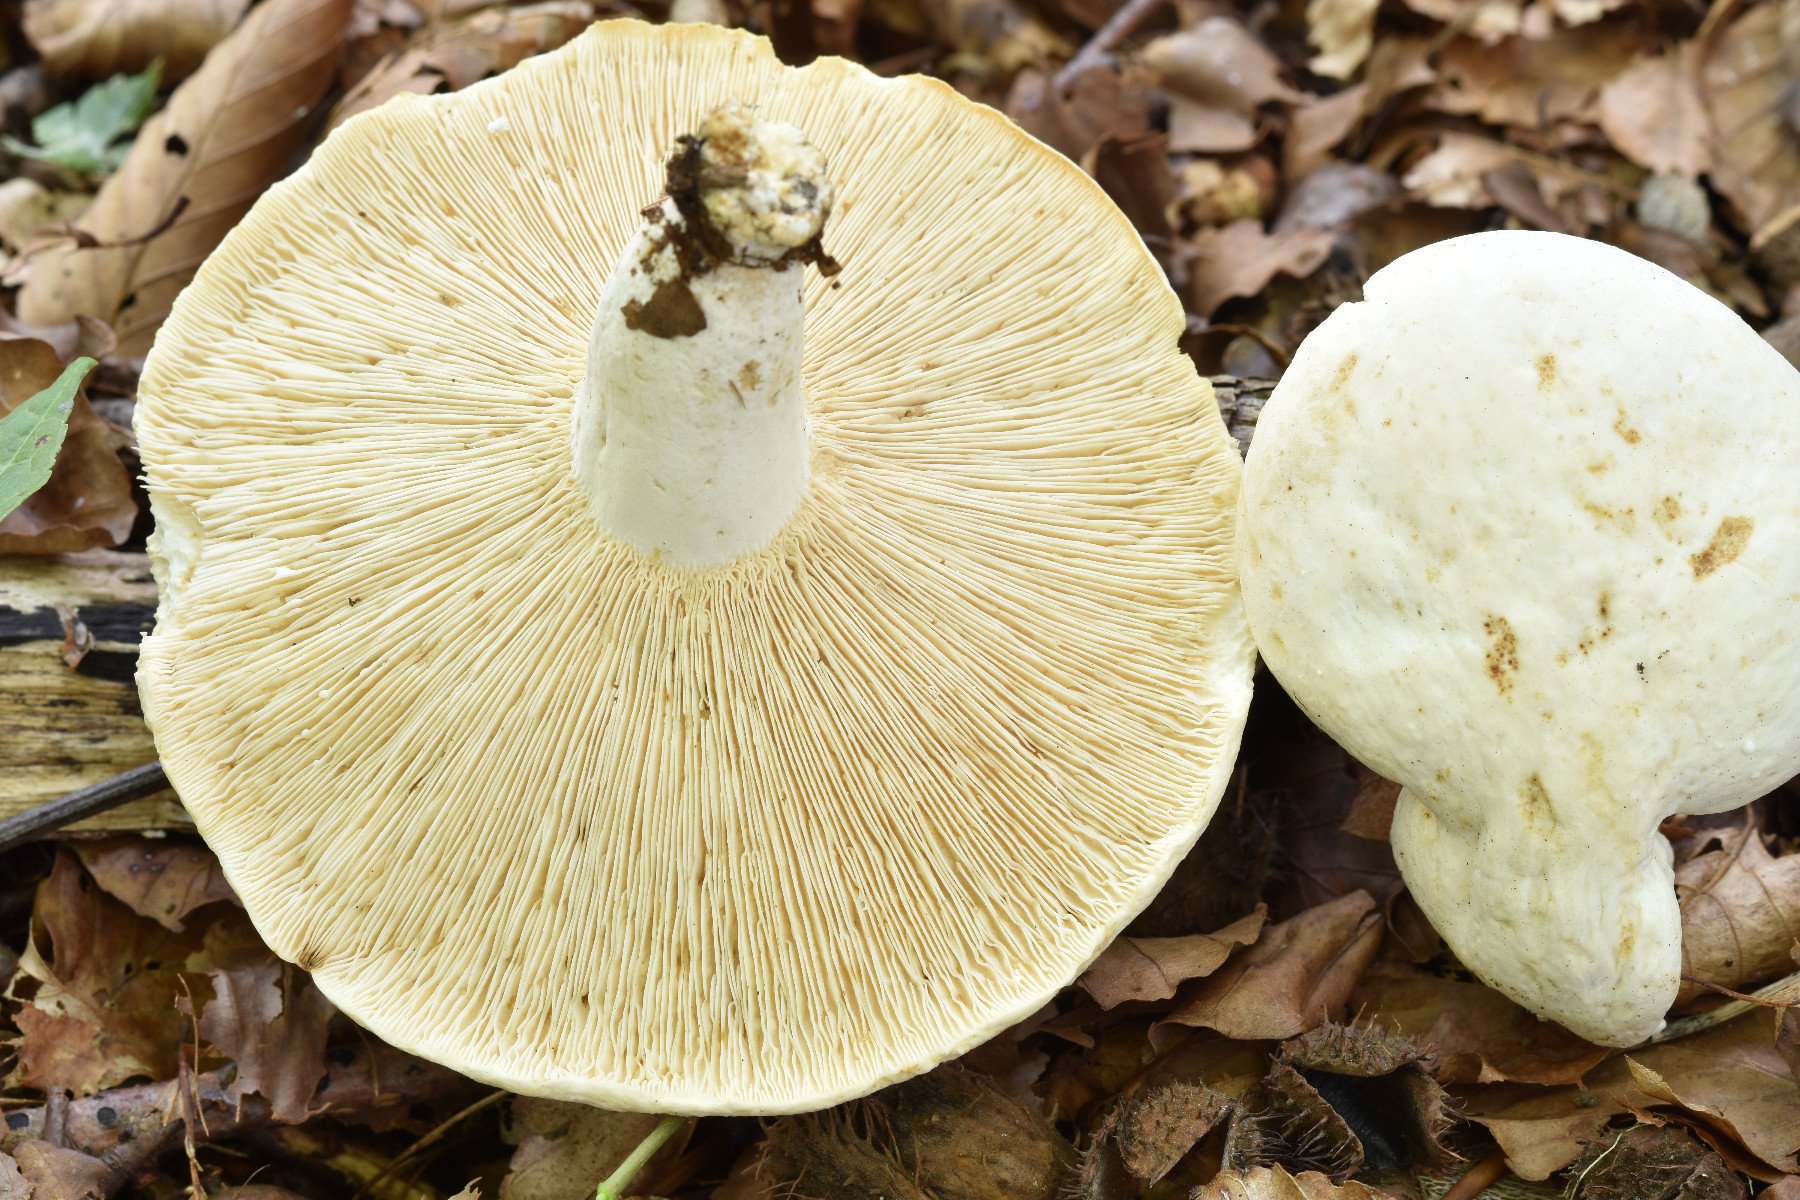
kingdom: Fungi
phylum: Basidiomycota
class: Agaricomycetes
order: Russulales
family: Russulaceae
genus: Lactifluus
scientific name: Lactifluus piperatus
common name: peber-mælkehat
